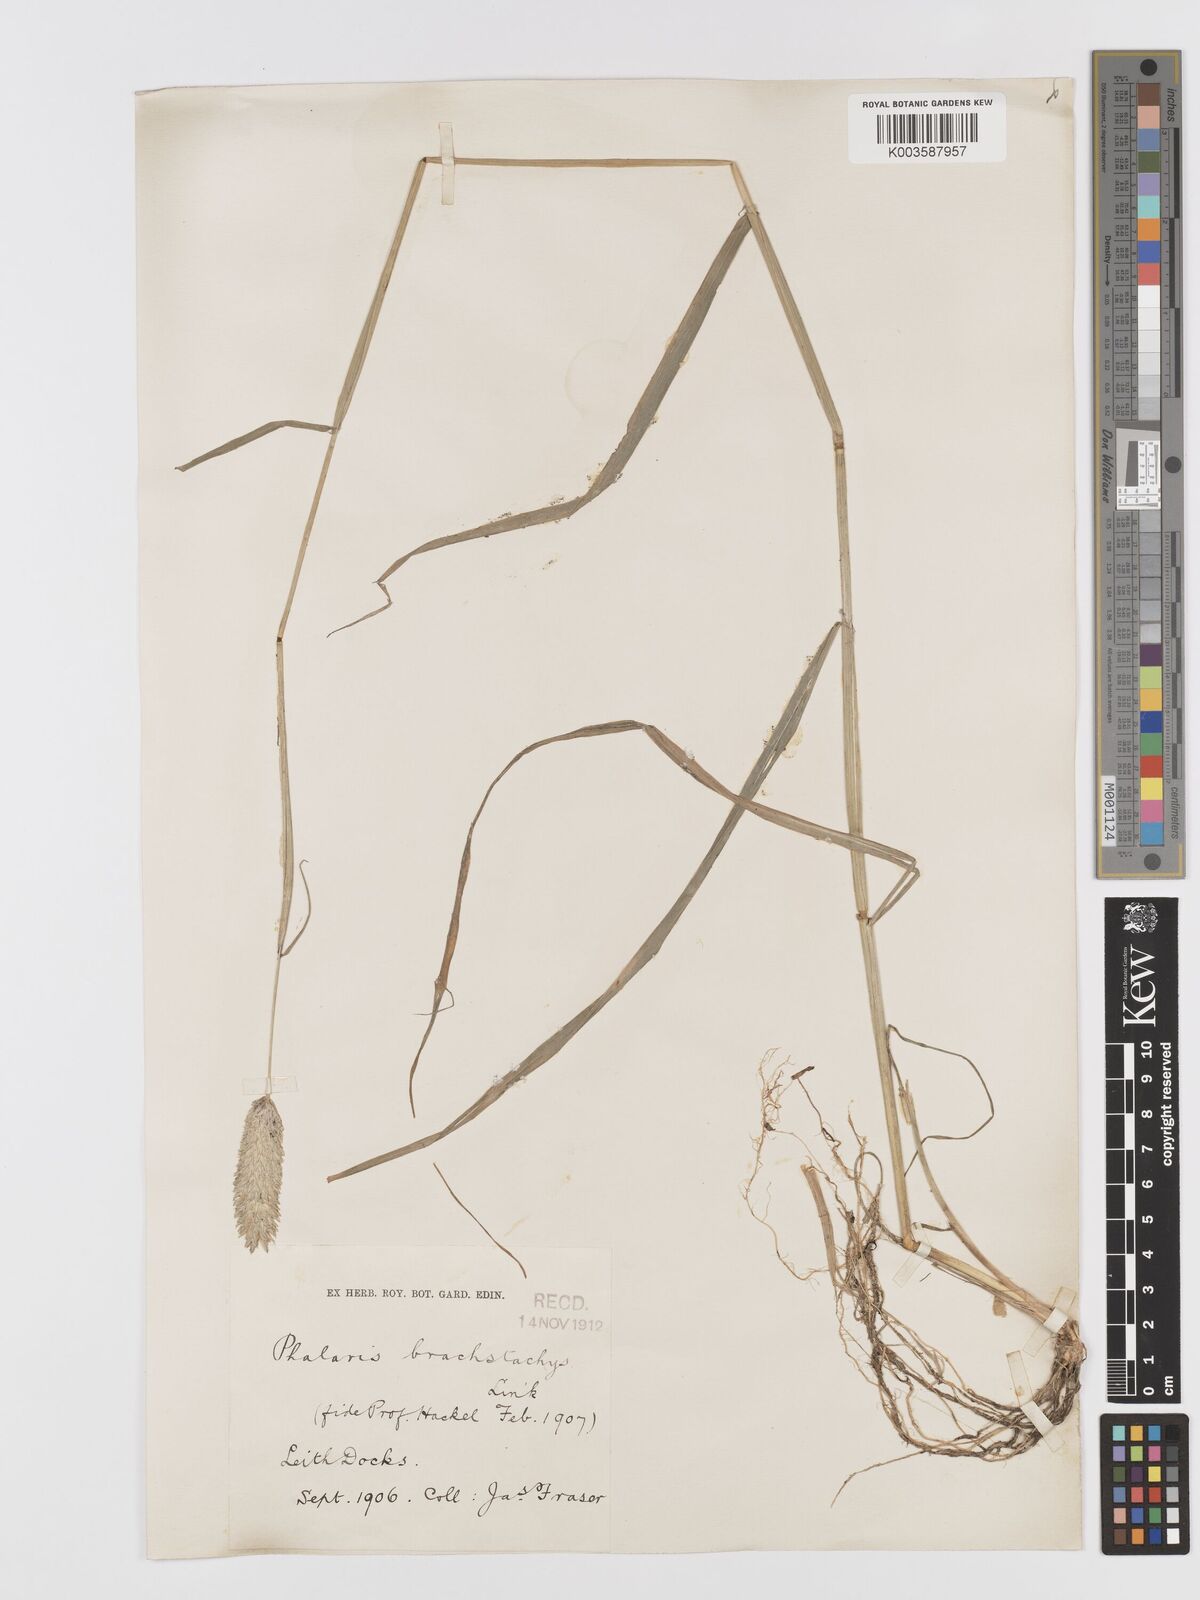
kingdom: Plantae
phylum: Tracheophyta
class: Liliopsida
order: Poales
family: Poaceae
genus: Phalaris
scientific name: Phalaris brachystachys
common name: Confused canary-grass
